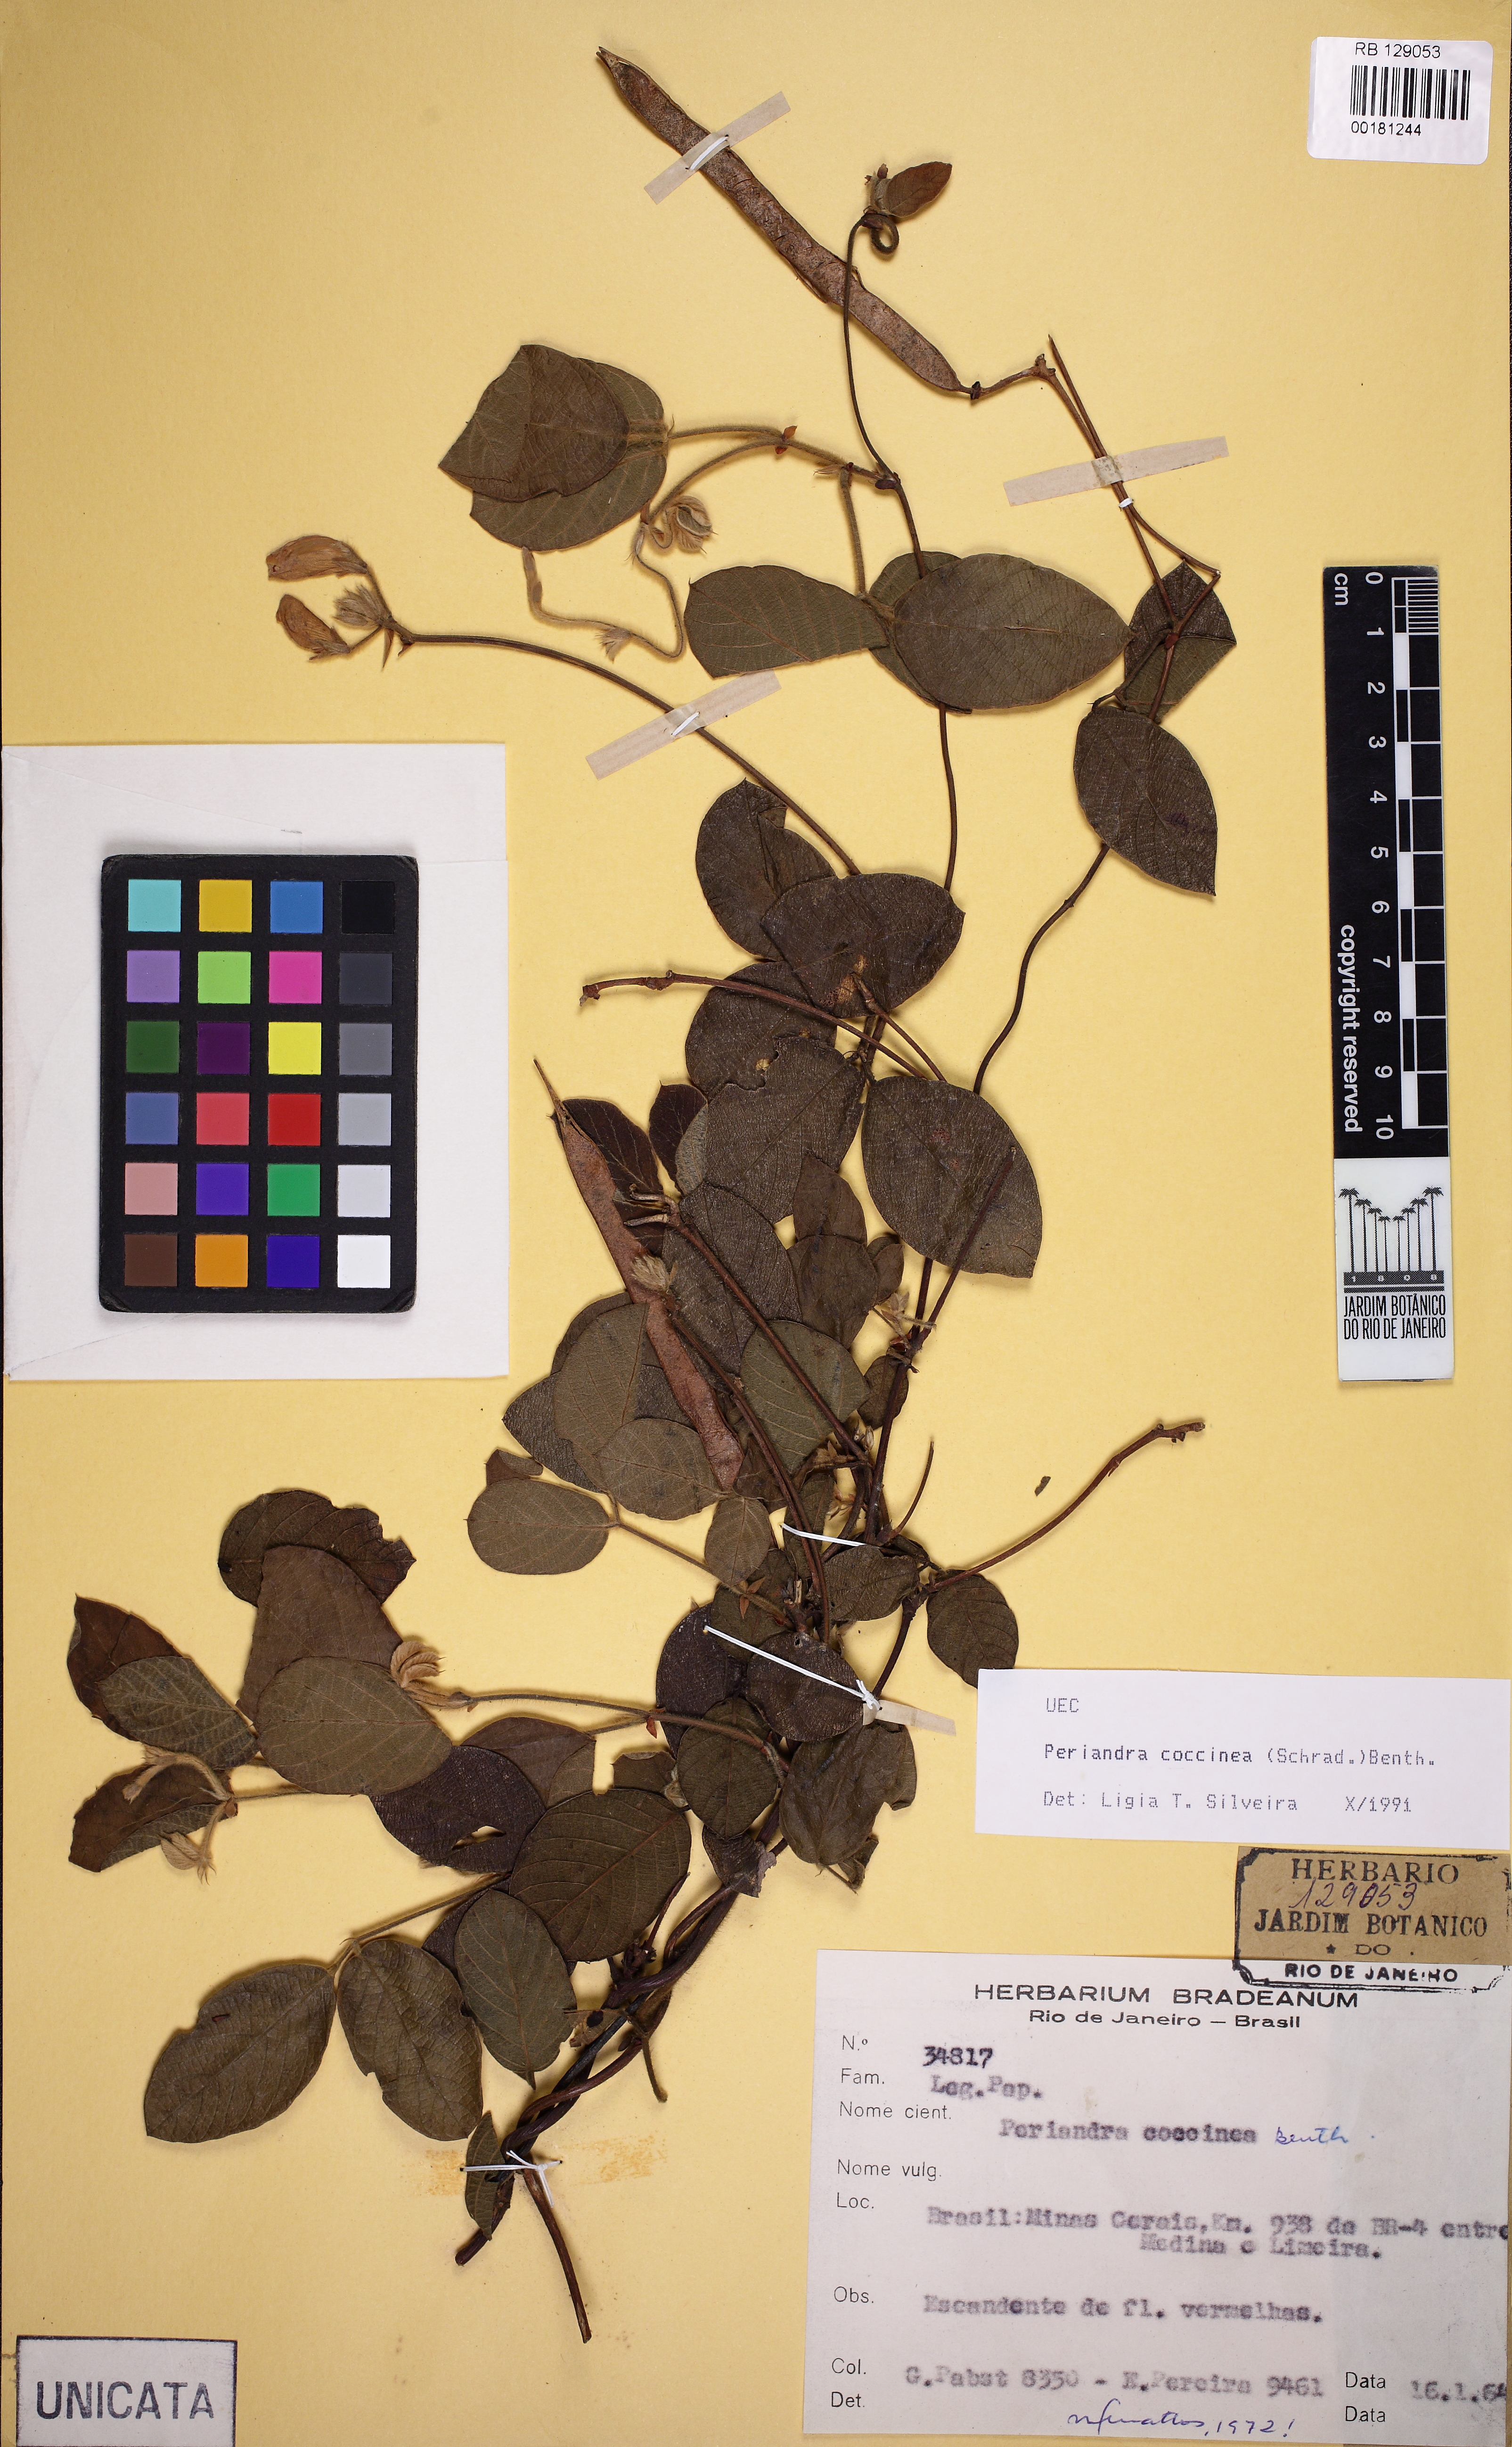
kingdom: Plantae
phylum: Tracheophyta
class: Magnoliopsida
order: Fabales
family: Fabaceae
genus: Periandra
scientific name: Periandra coccinea
